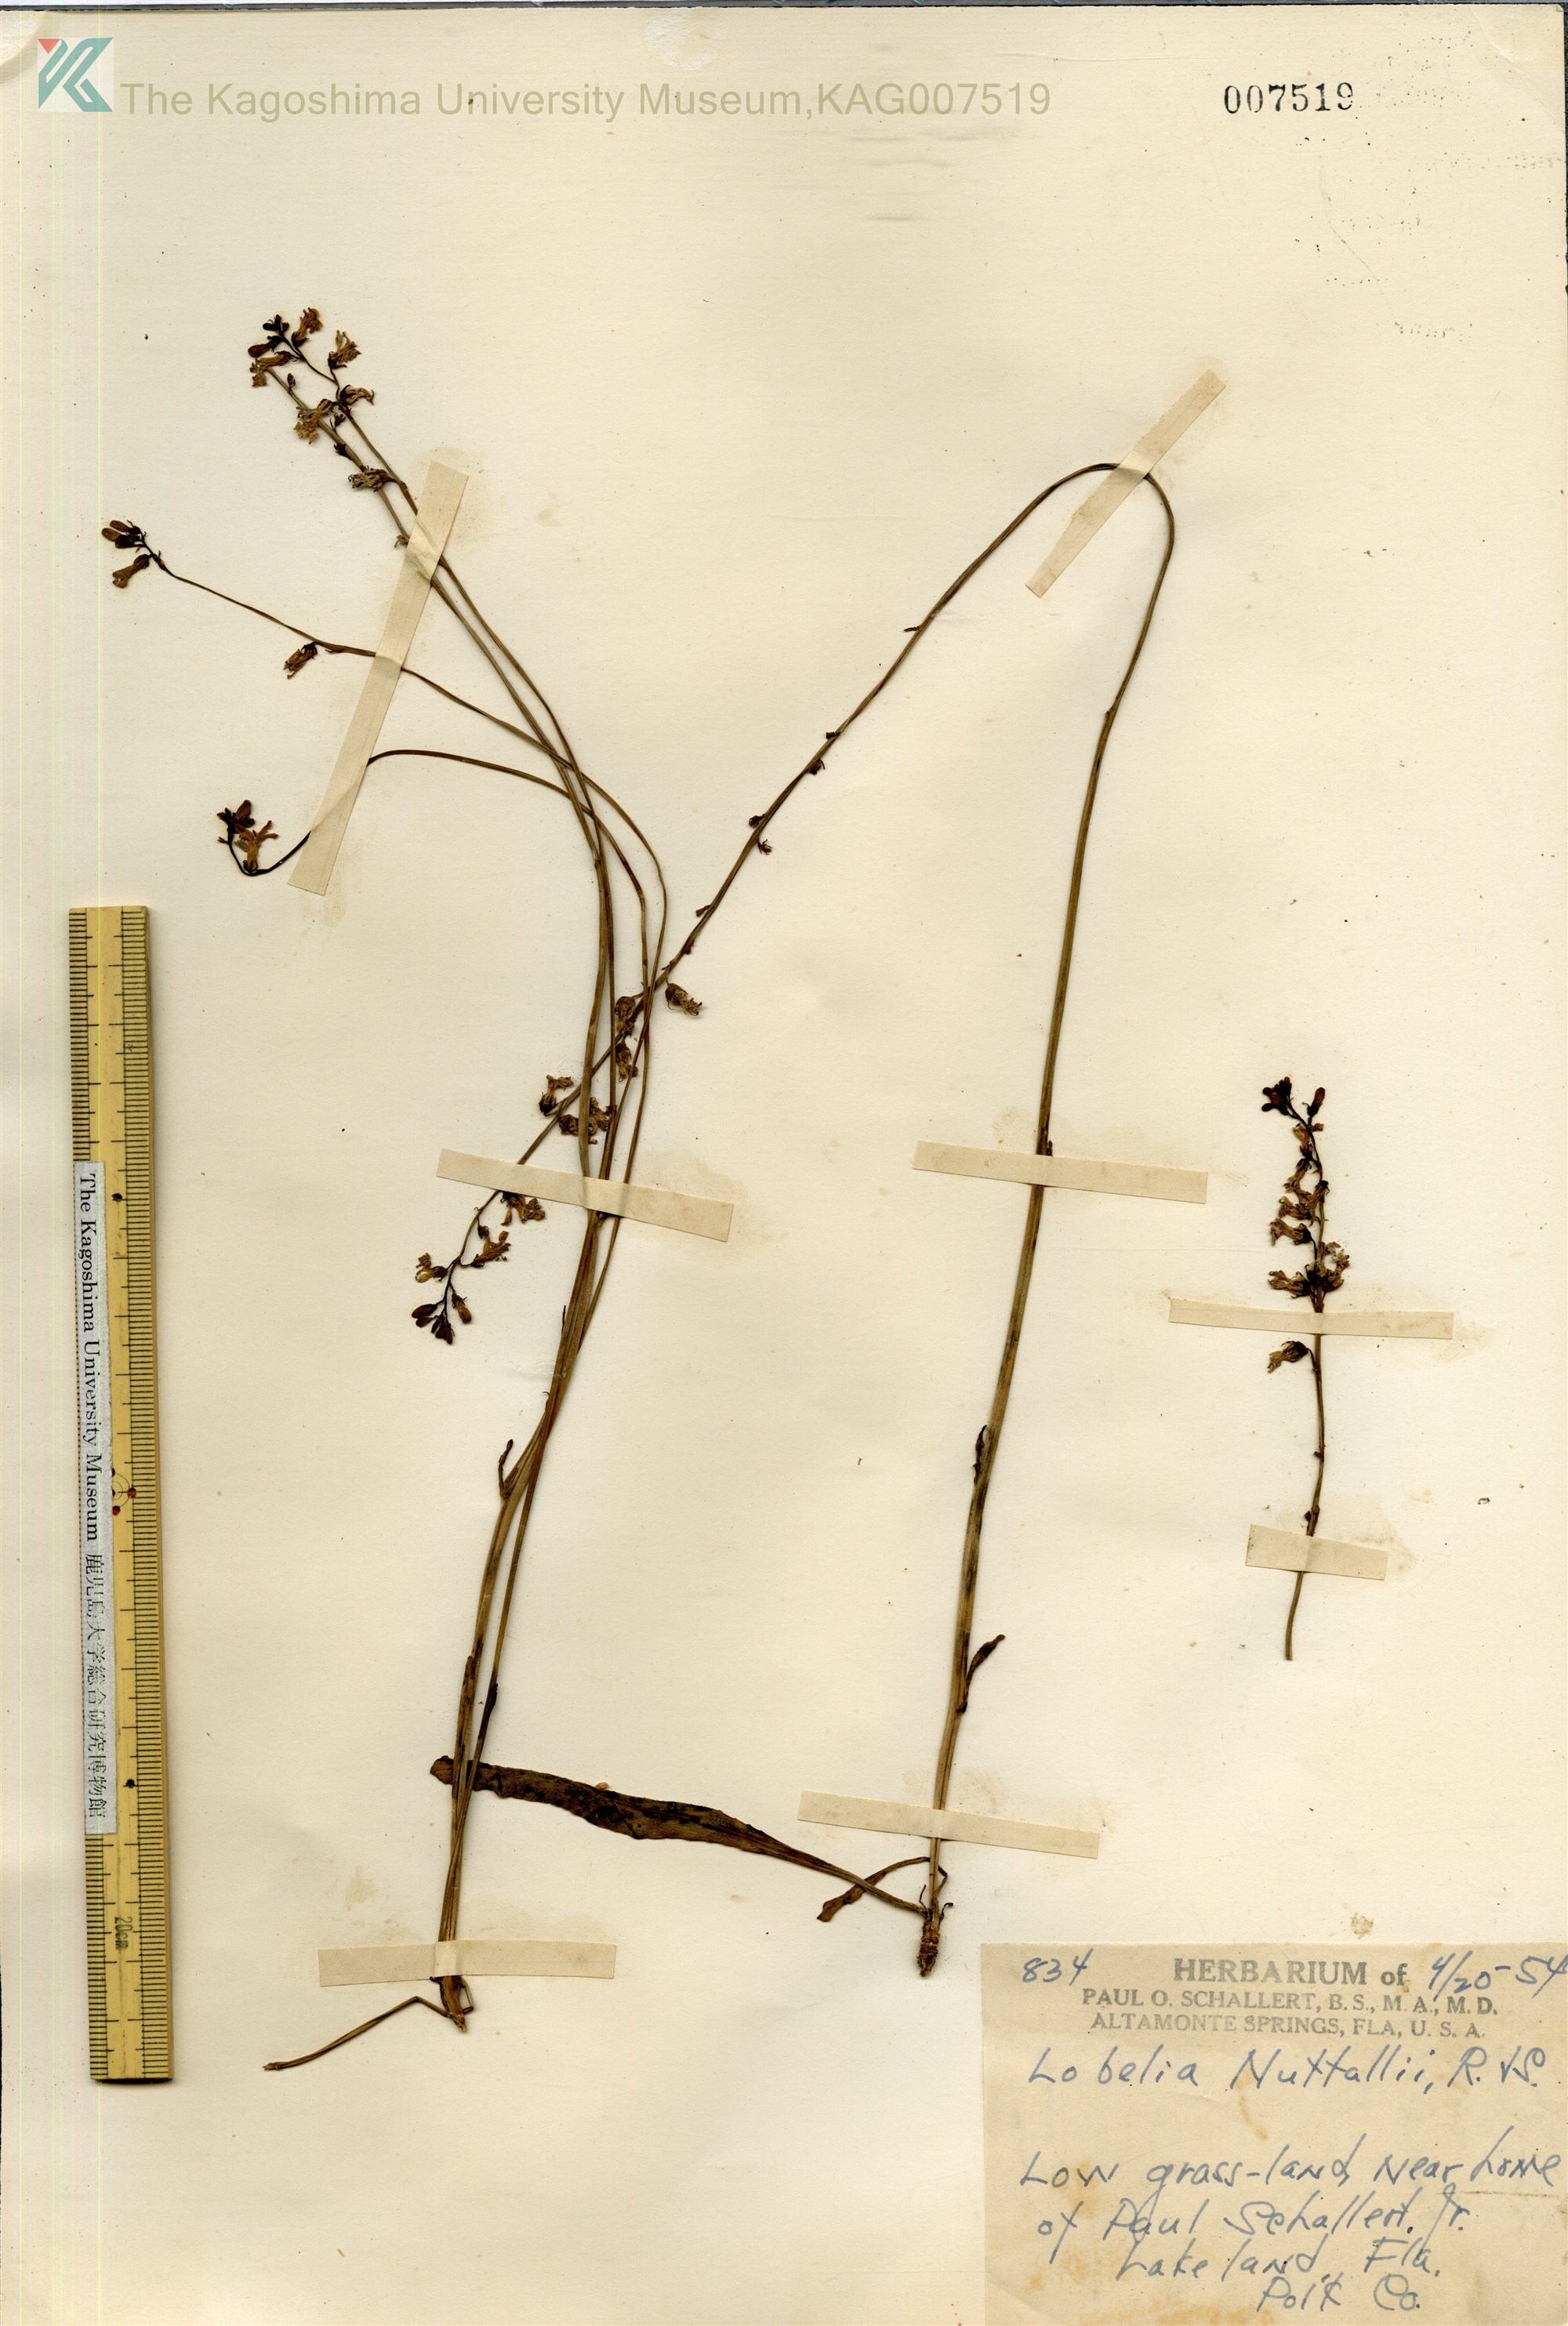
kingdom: Plantae
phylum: Tracheophyta
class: Magnoliopsida
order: Asterales
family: Campanulaceae
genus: Lobelia
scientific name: Lobelia nuttallii
